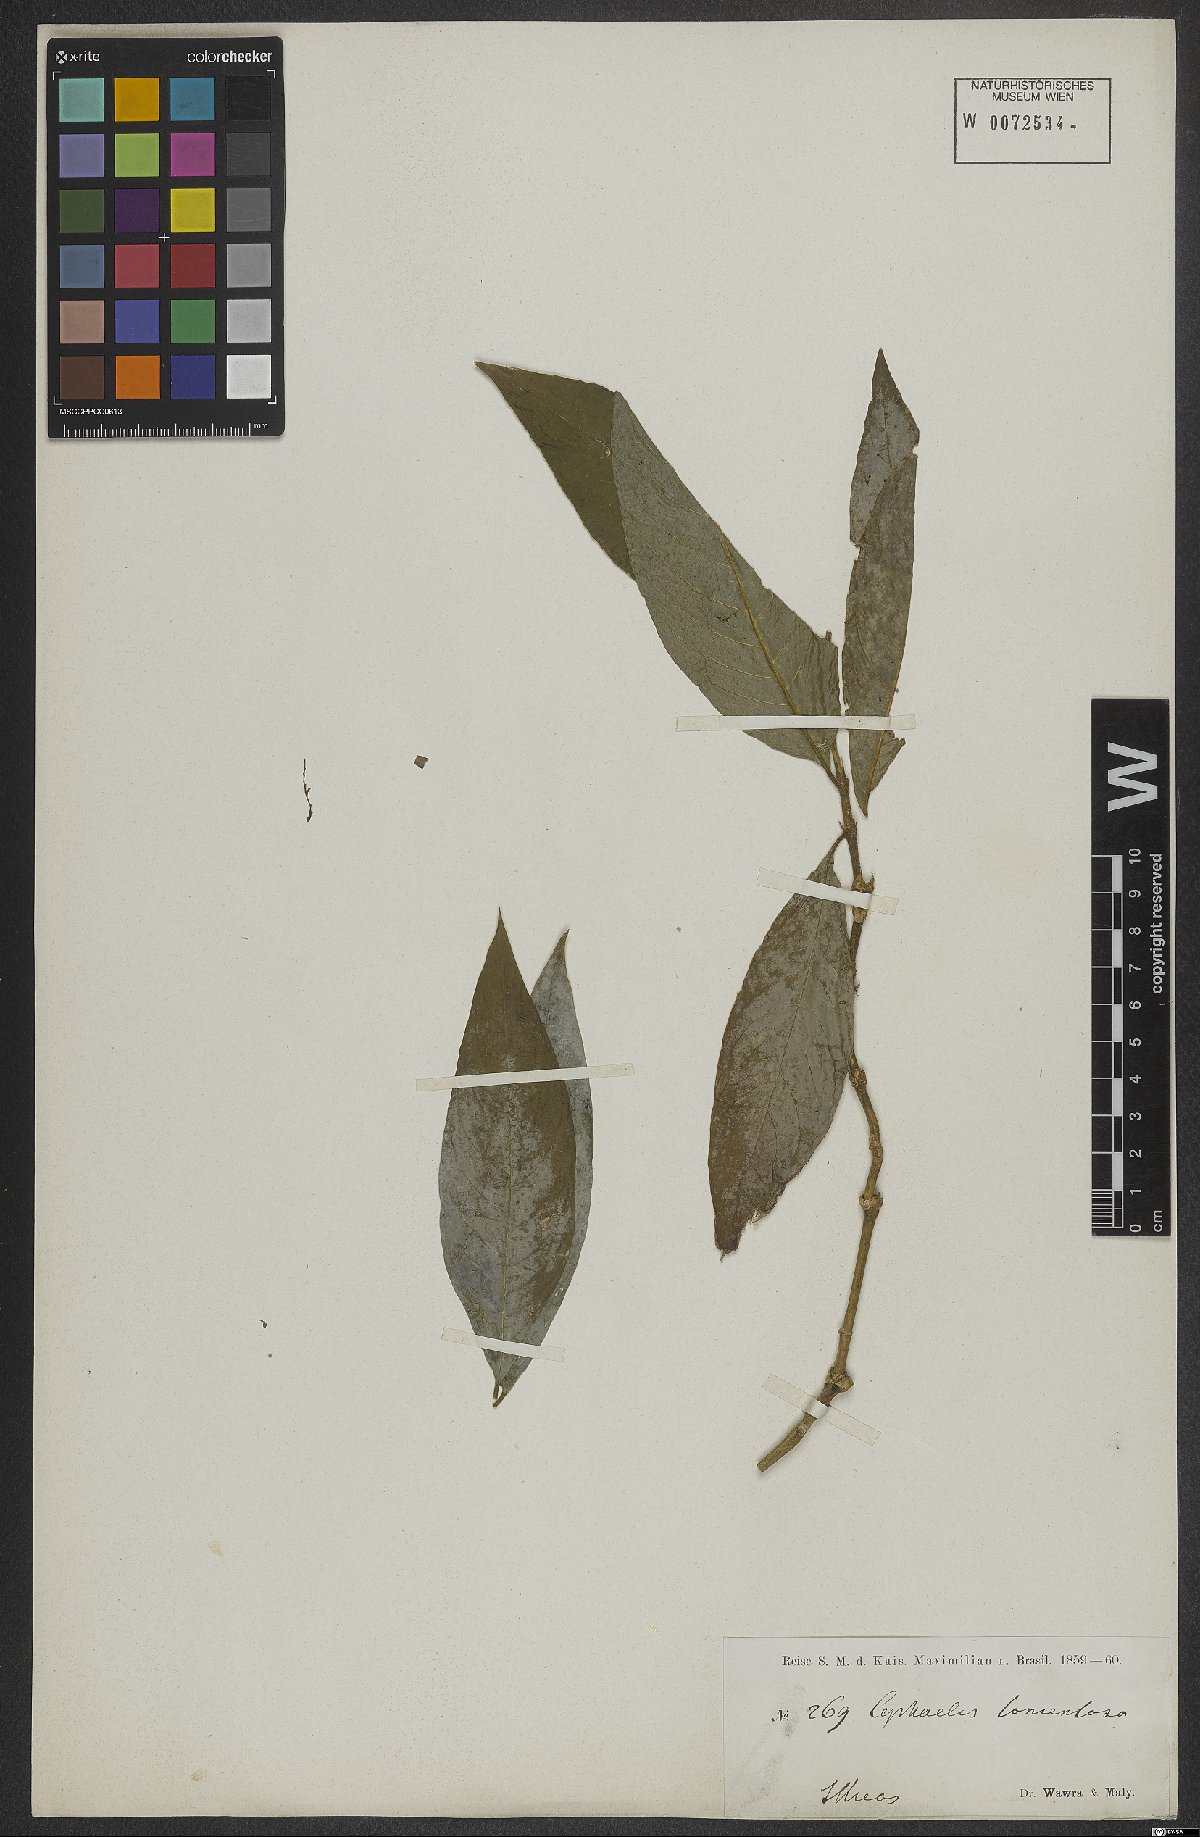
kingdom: Plantae
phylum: Tracheophyta
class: Magnoliopsida
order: Gentianales
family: Rubiaceae
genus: Psychotria
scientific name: Psychotria salzmanniana
